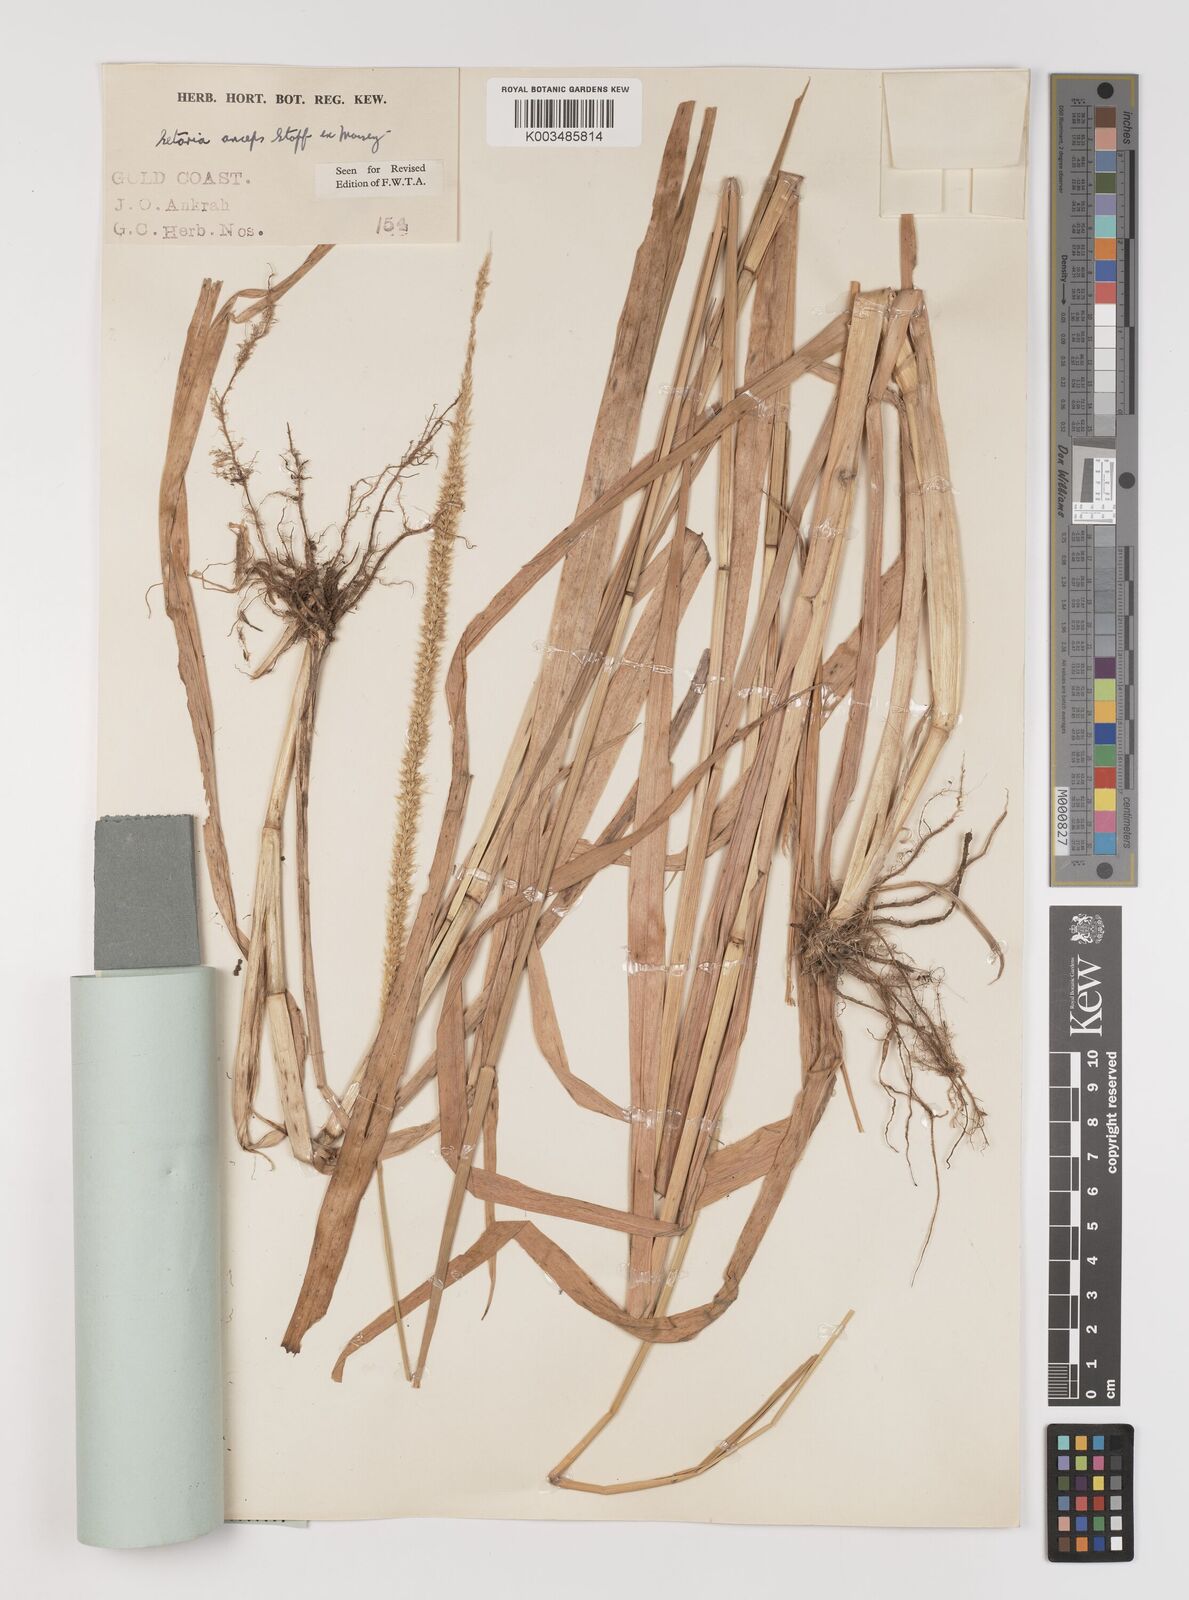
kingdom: Plantae
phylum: Tracheophyta
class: Liliopsida
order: Poales
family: Poaceae
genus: Setaria
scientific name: Setaria sphacelata
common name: African bristlegrass
